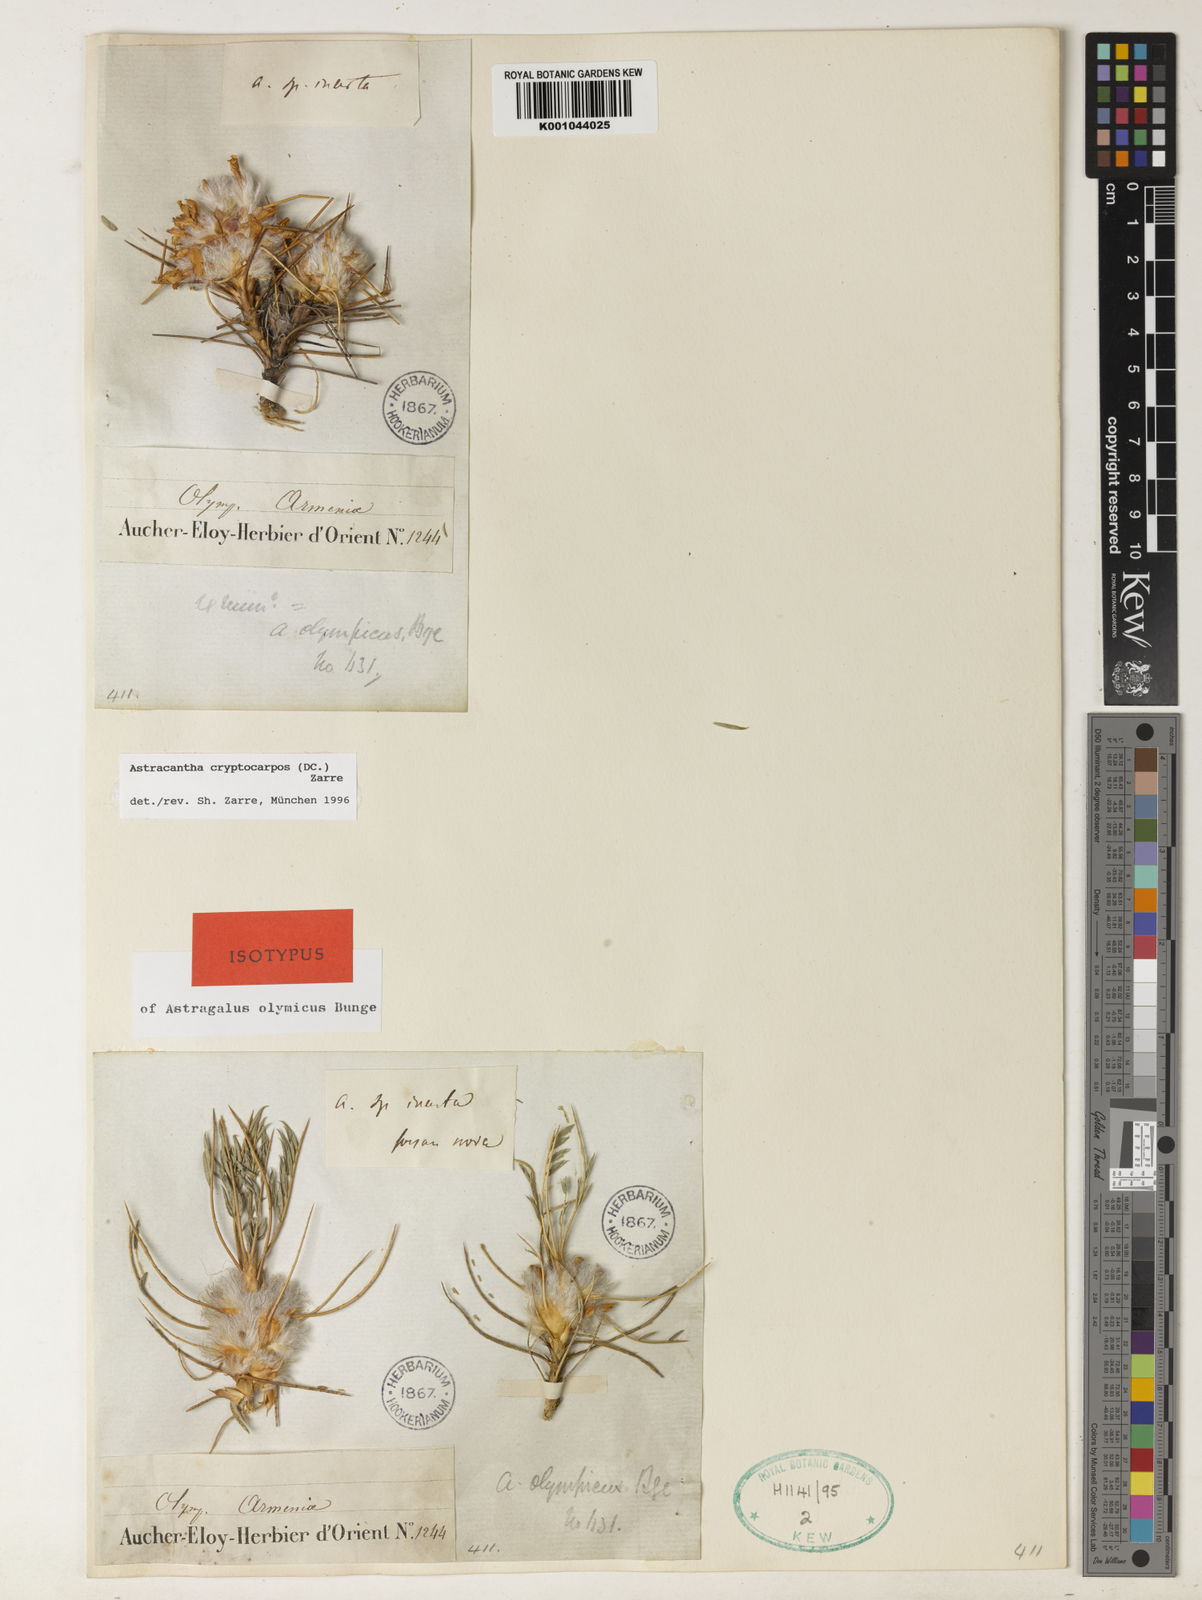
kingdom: Plantae
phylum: Tracheophyta
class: Magnoliopsida
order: Fabales
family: Fabaceae
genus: Astragalus
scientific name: Astragalus cryptocarpos
